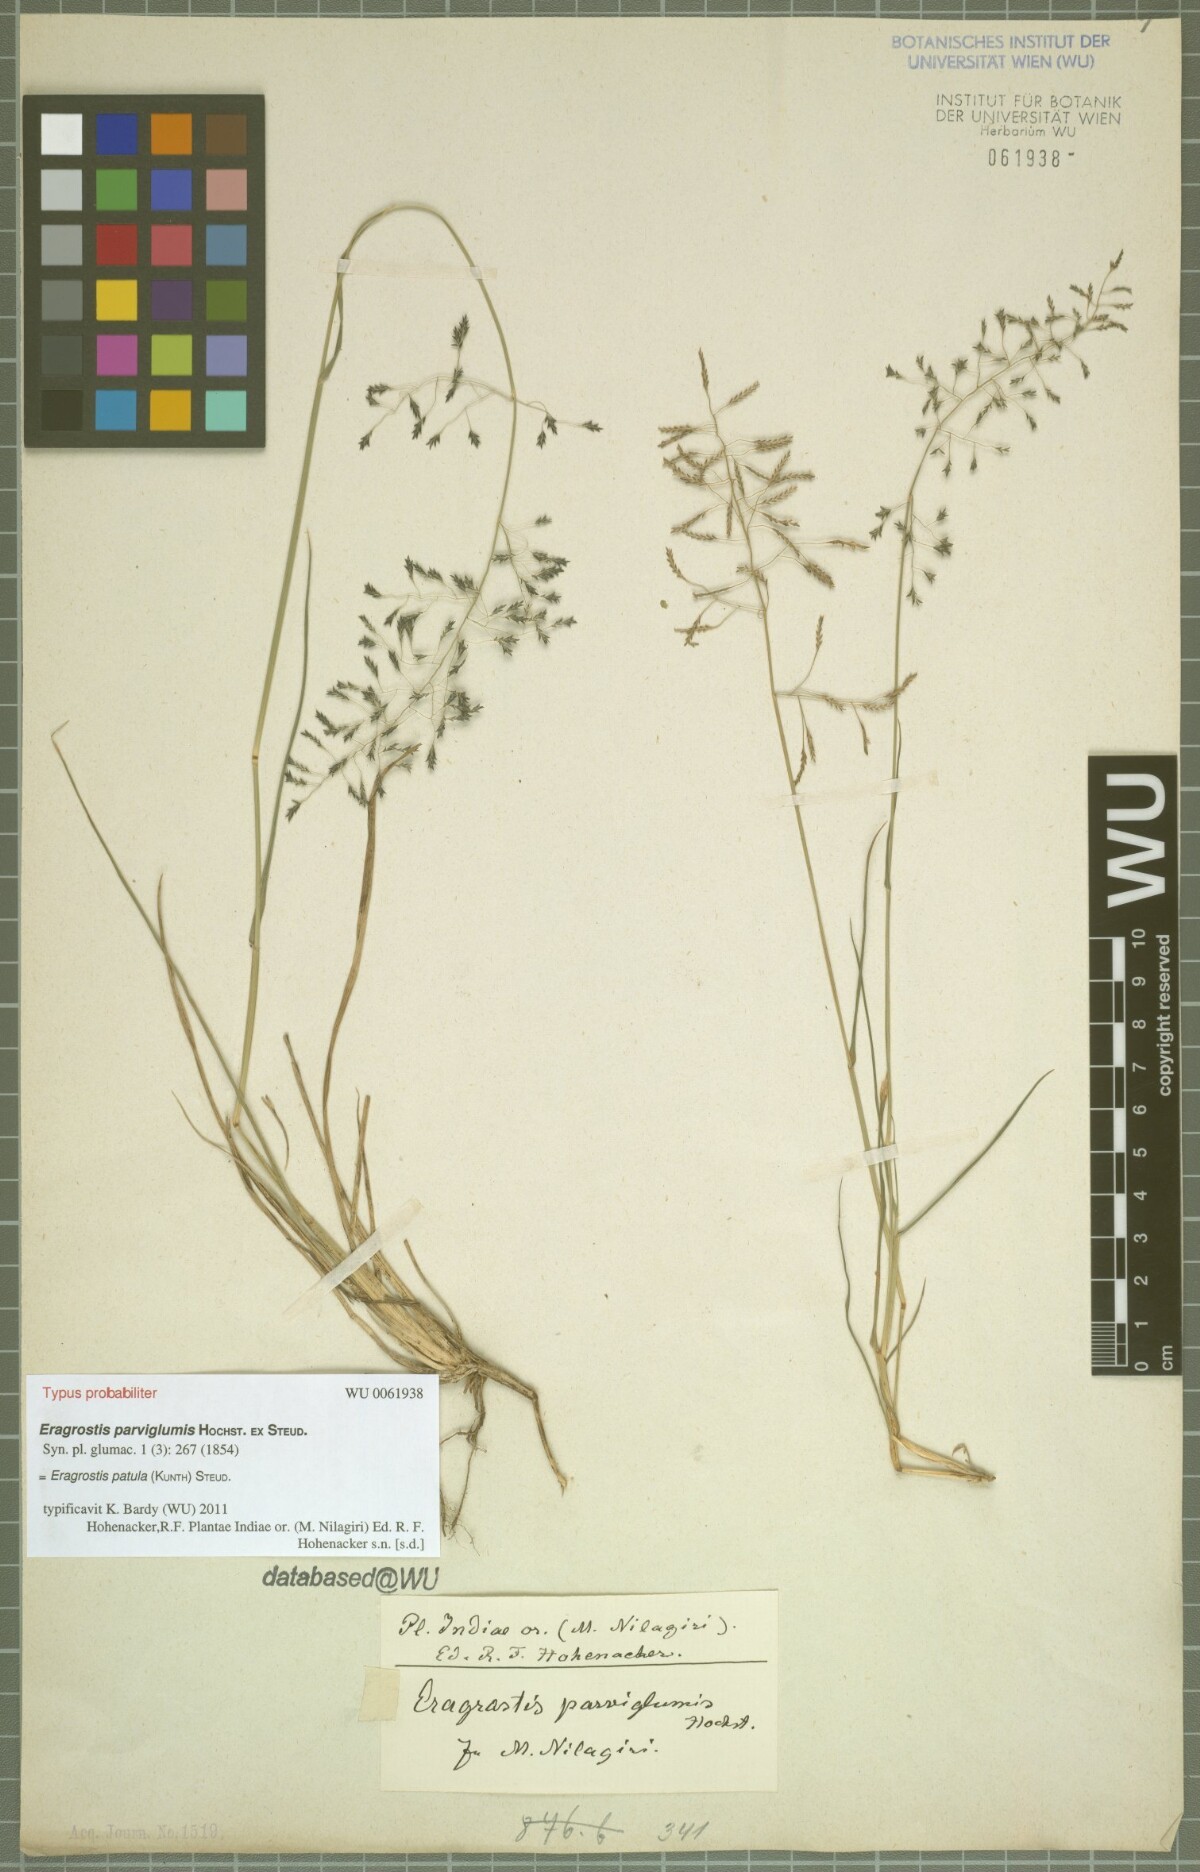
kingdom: Plantae
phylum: Tracheophyta
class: Liliopsida
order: Poales
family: Poaceae
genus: Eragrostis
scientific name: Eragrostis tenuifolia
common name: Elastic grass
